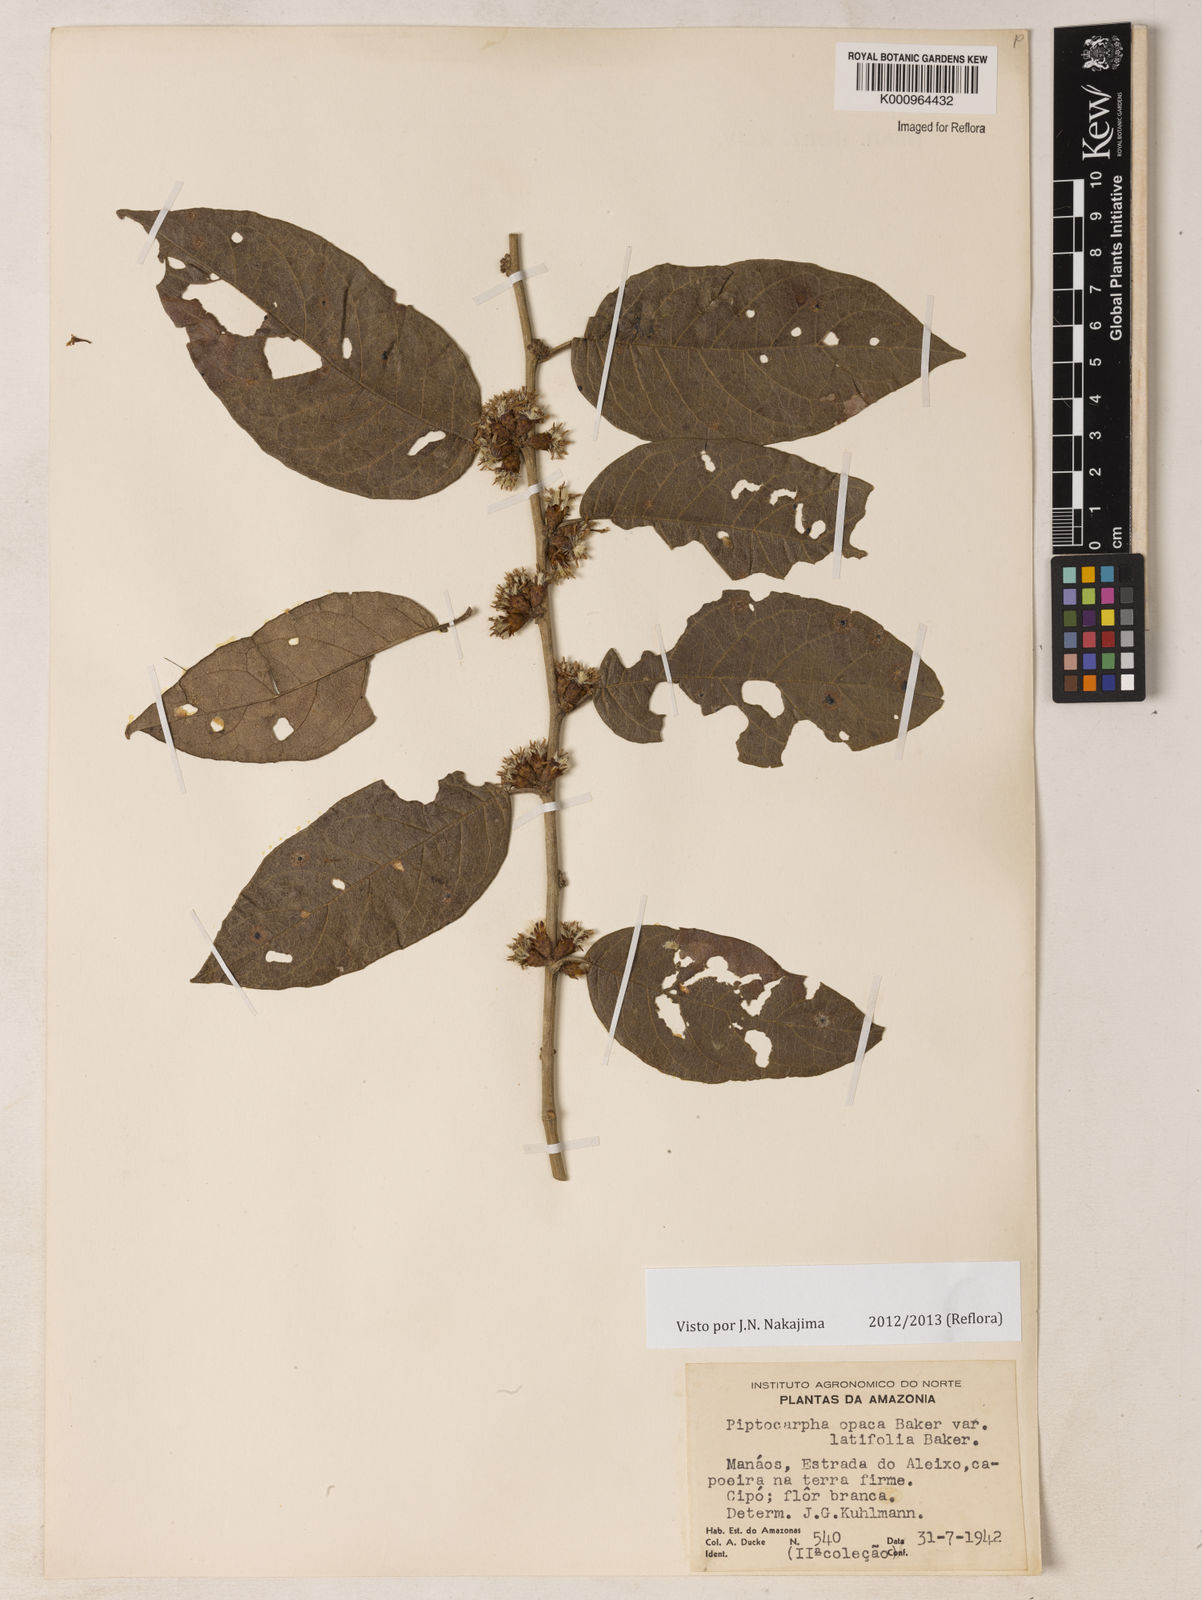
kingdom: Plantae
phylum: Tracheophyta
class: Magnoliopsida
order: Asterales
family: Asteraceae
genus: Piptocarpha
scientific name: Piptocarpha opaca
